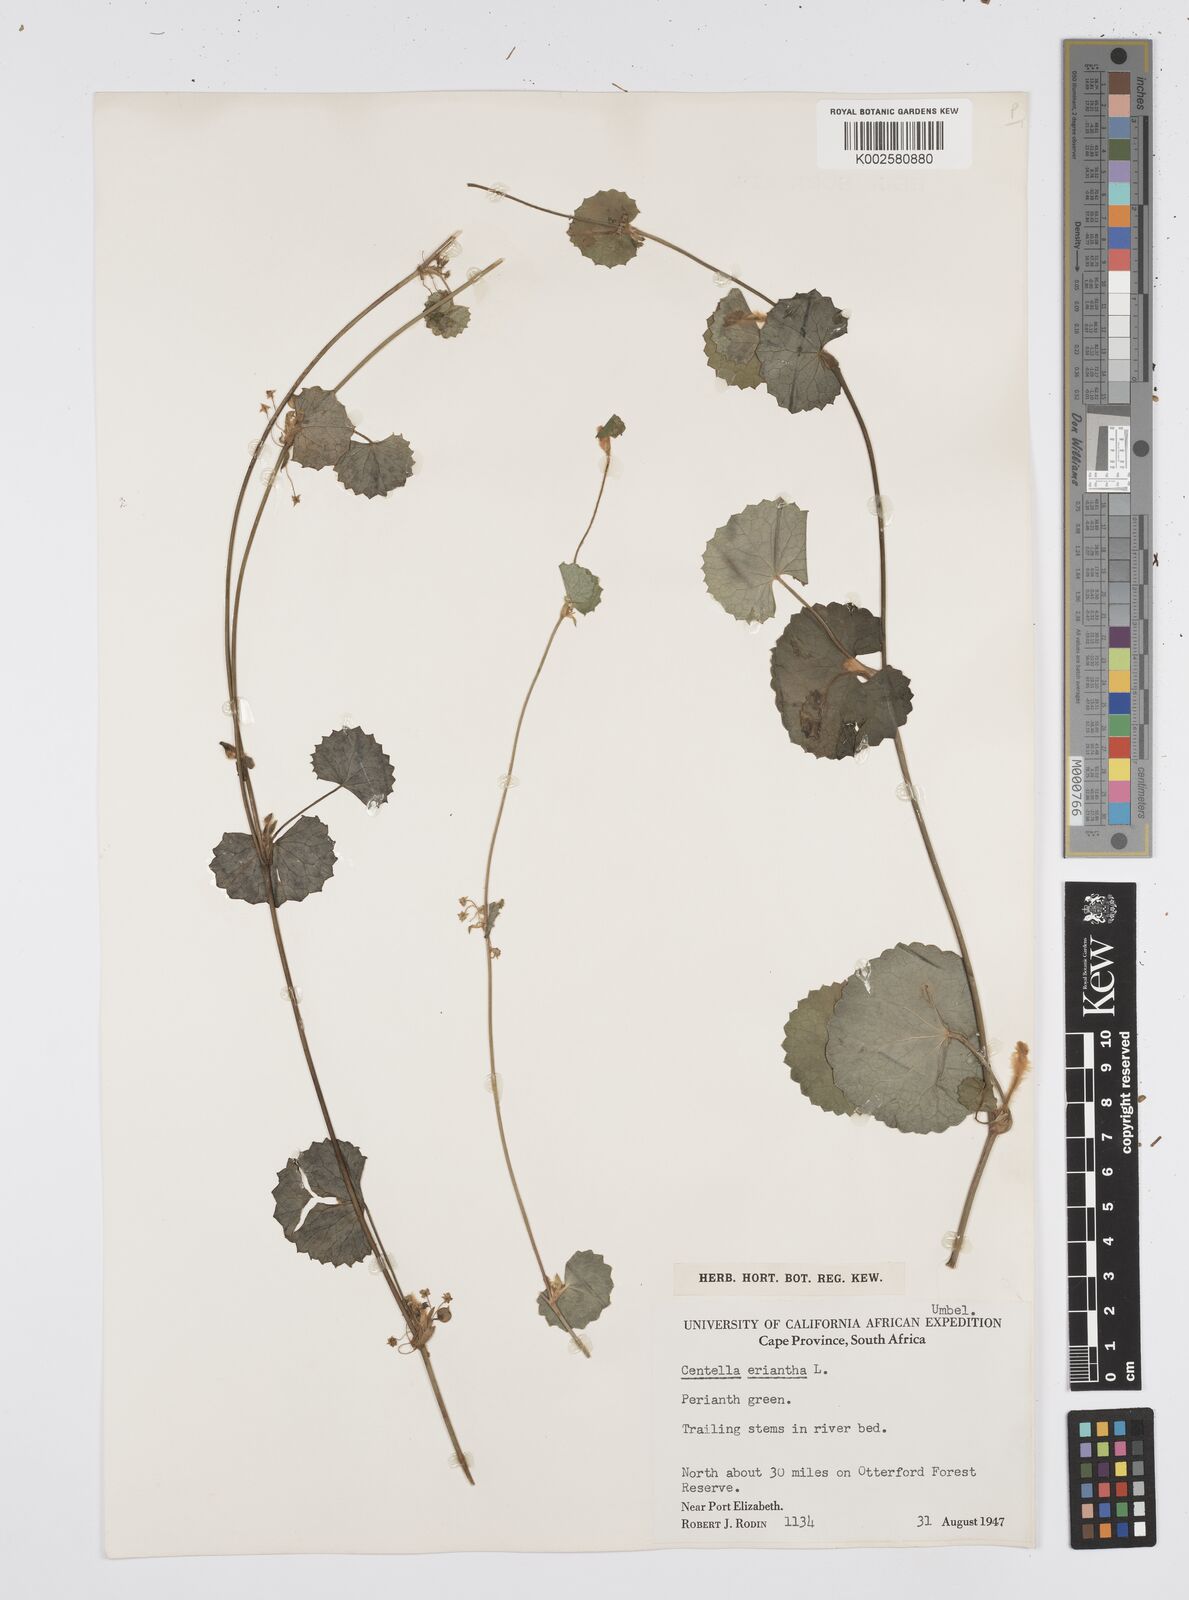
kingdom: Plantae
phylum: Tracheophyta
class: Magnoliopsida
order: Apiales
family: Apiaceae
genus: Centella
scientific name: Centella eriantha
